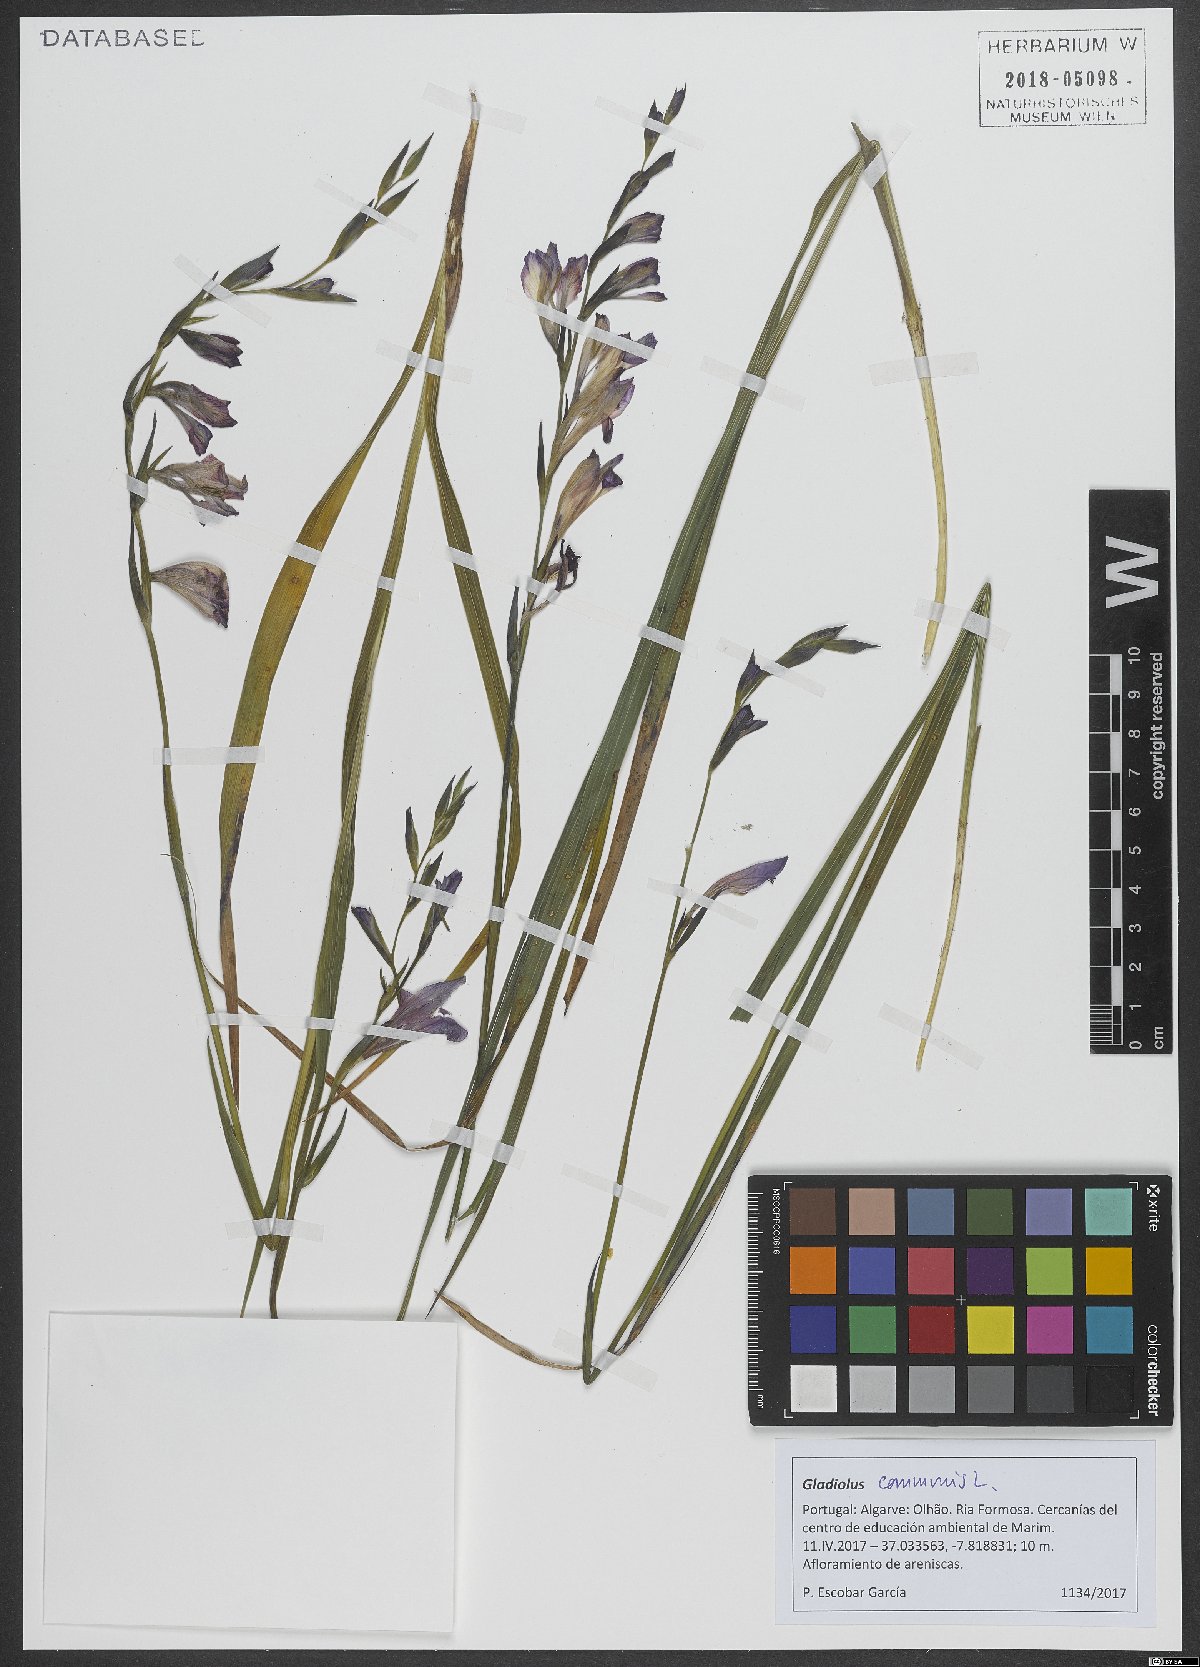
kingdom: Plantae
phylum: Tracheophyta
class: Liliopsida
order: Asparagales
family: Iridaceae
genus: Gladiolus
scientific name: Gladiolus communis
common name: Eastern gladiolus
